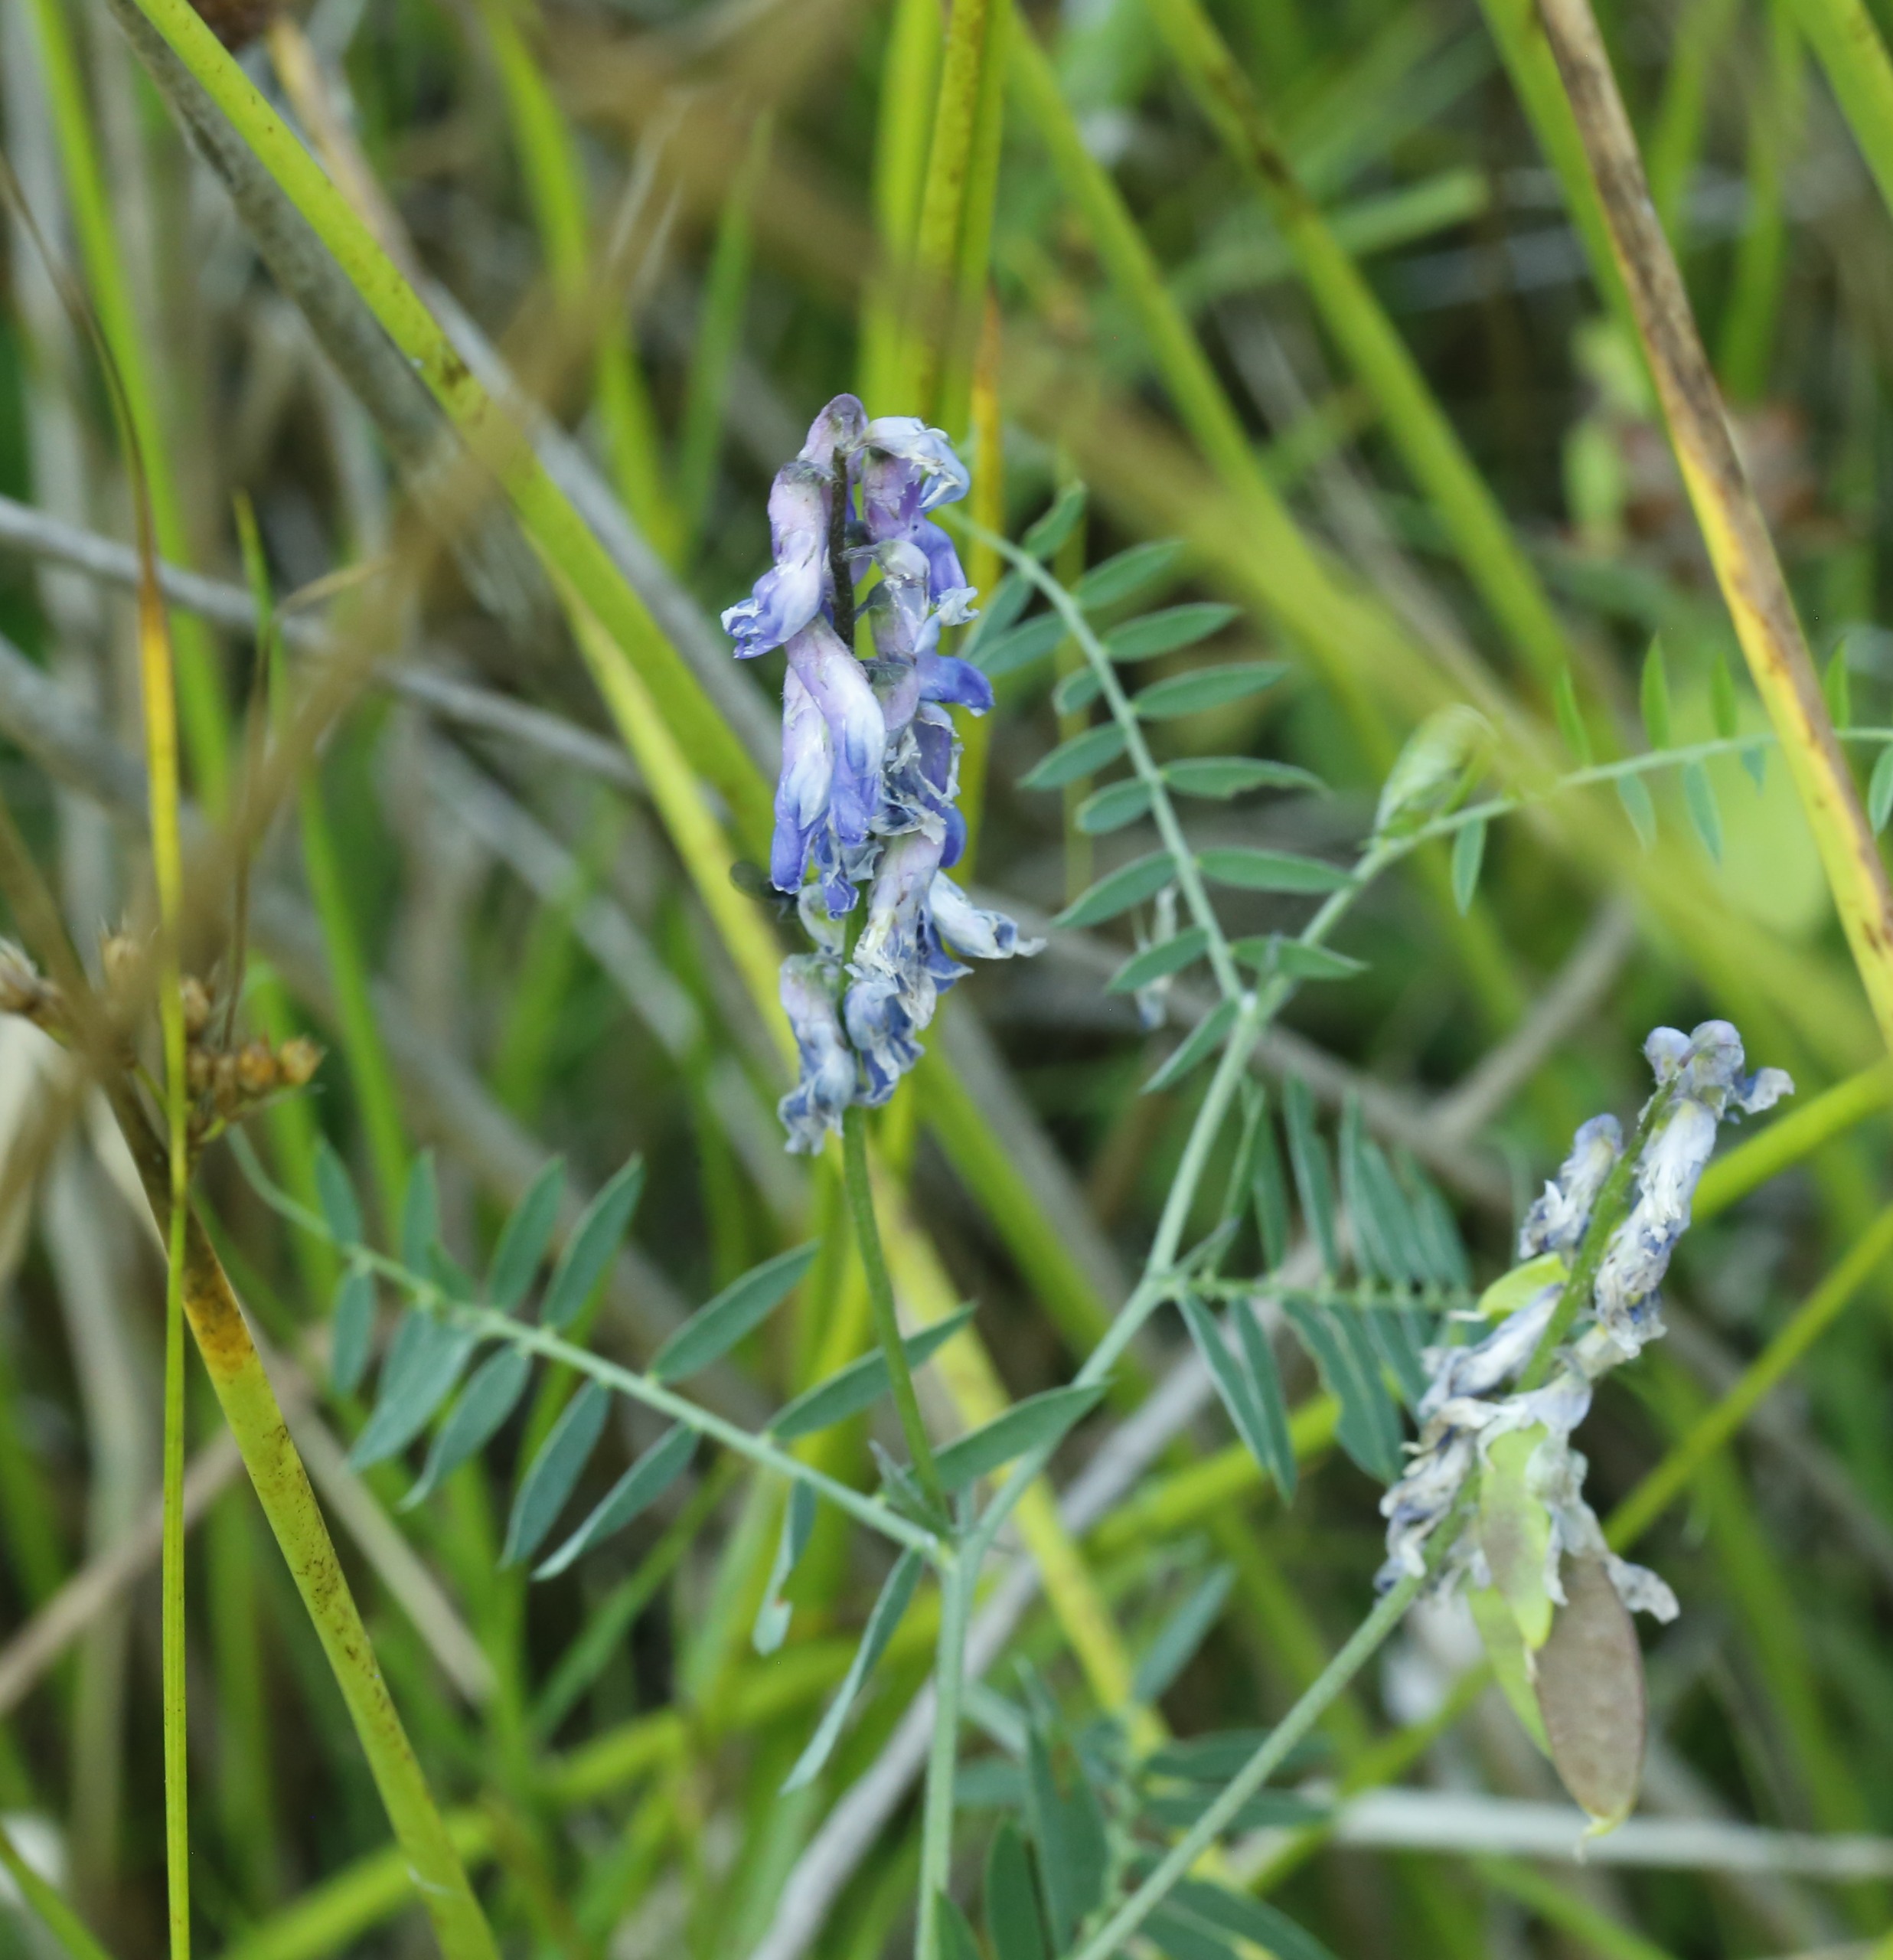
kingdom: Plantae
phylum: Tracheophyta
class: Magnoliopsida
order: Fabales
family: Fabaceae
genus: Vicia
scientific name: Vicia cracca
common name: Muse-vikke
